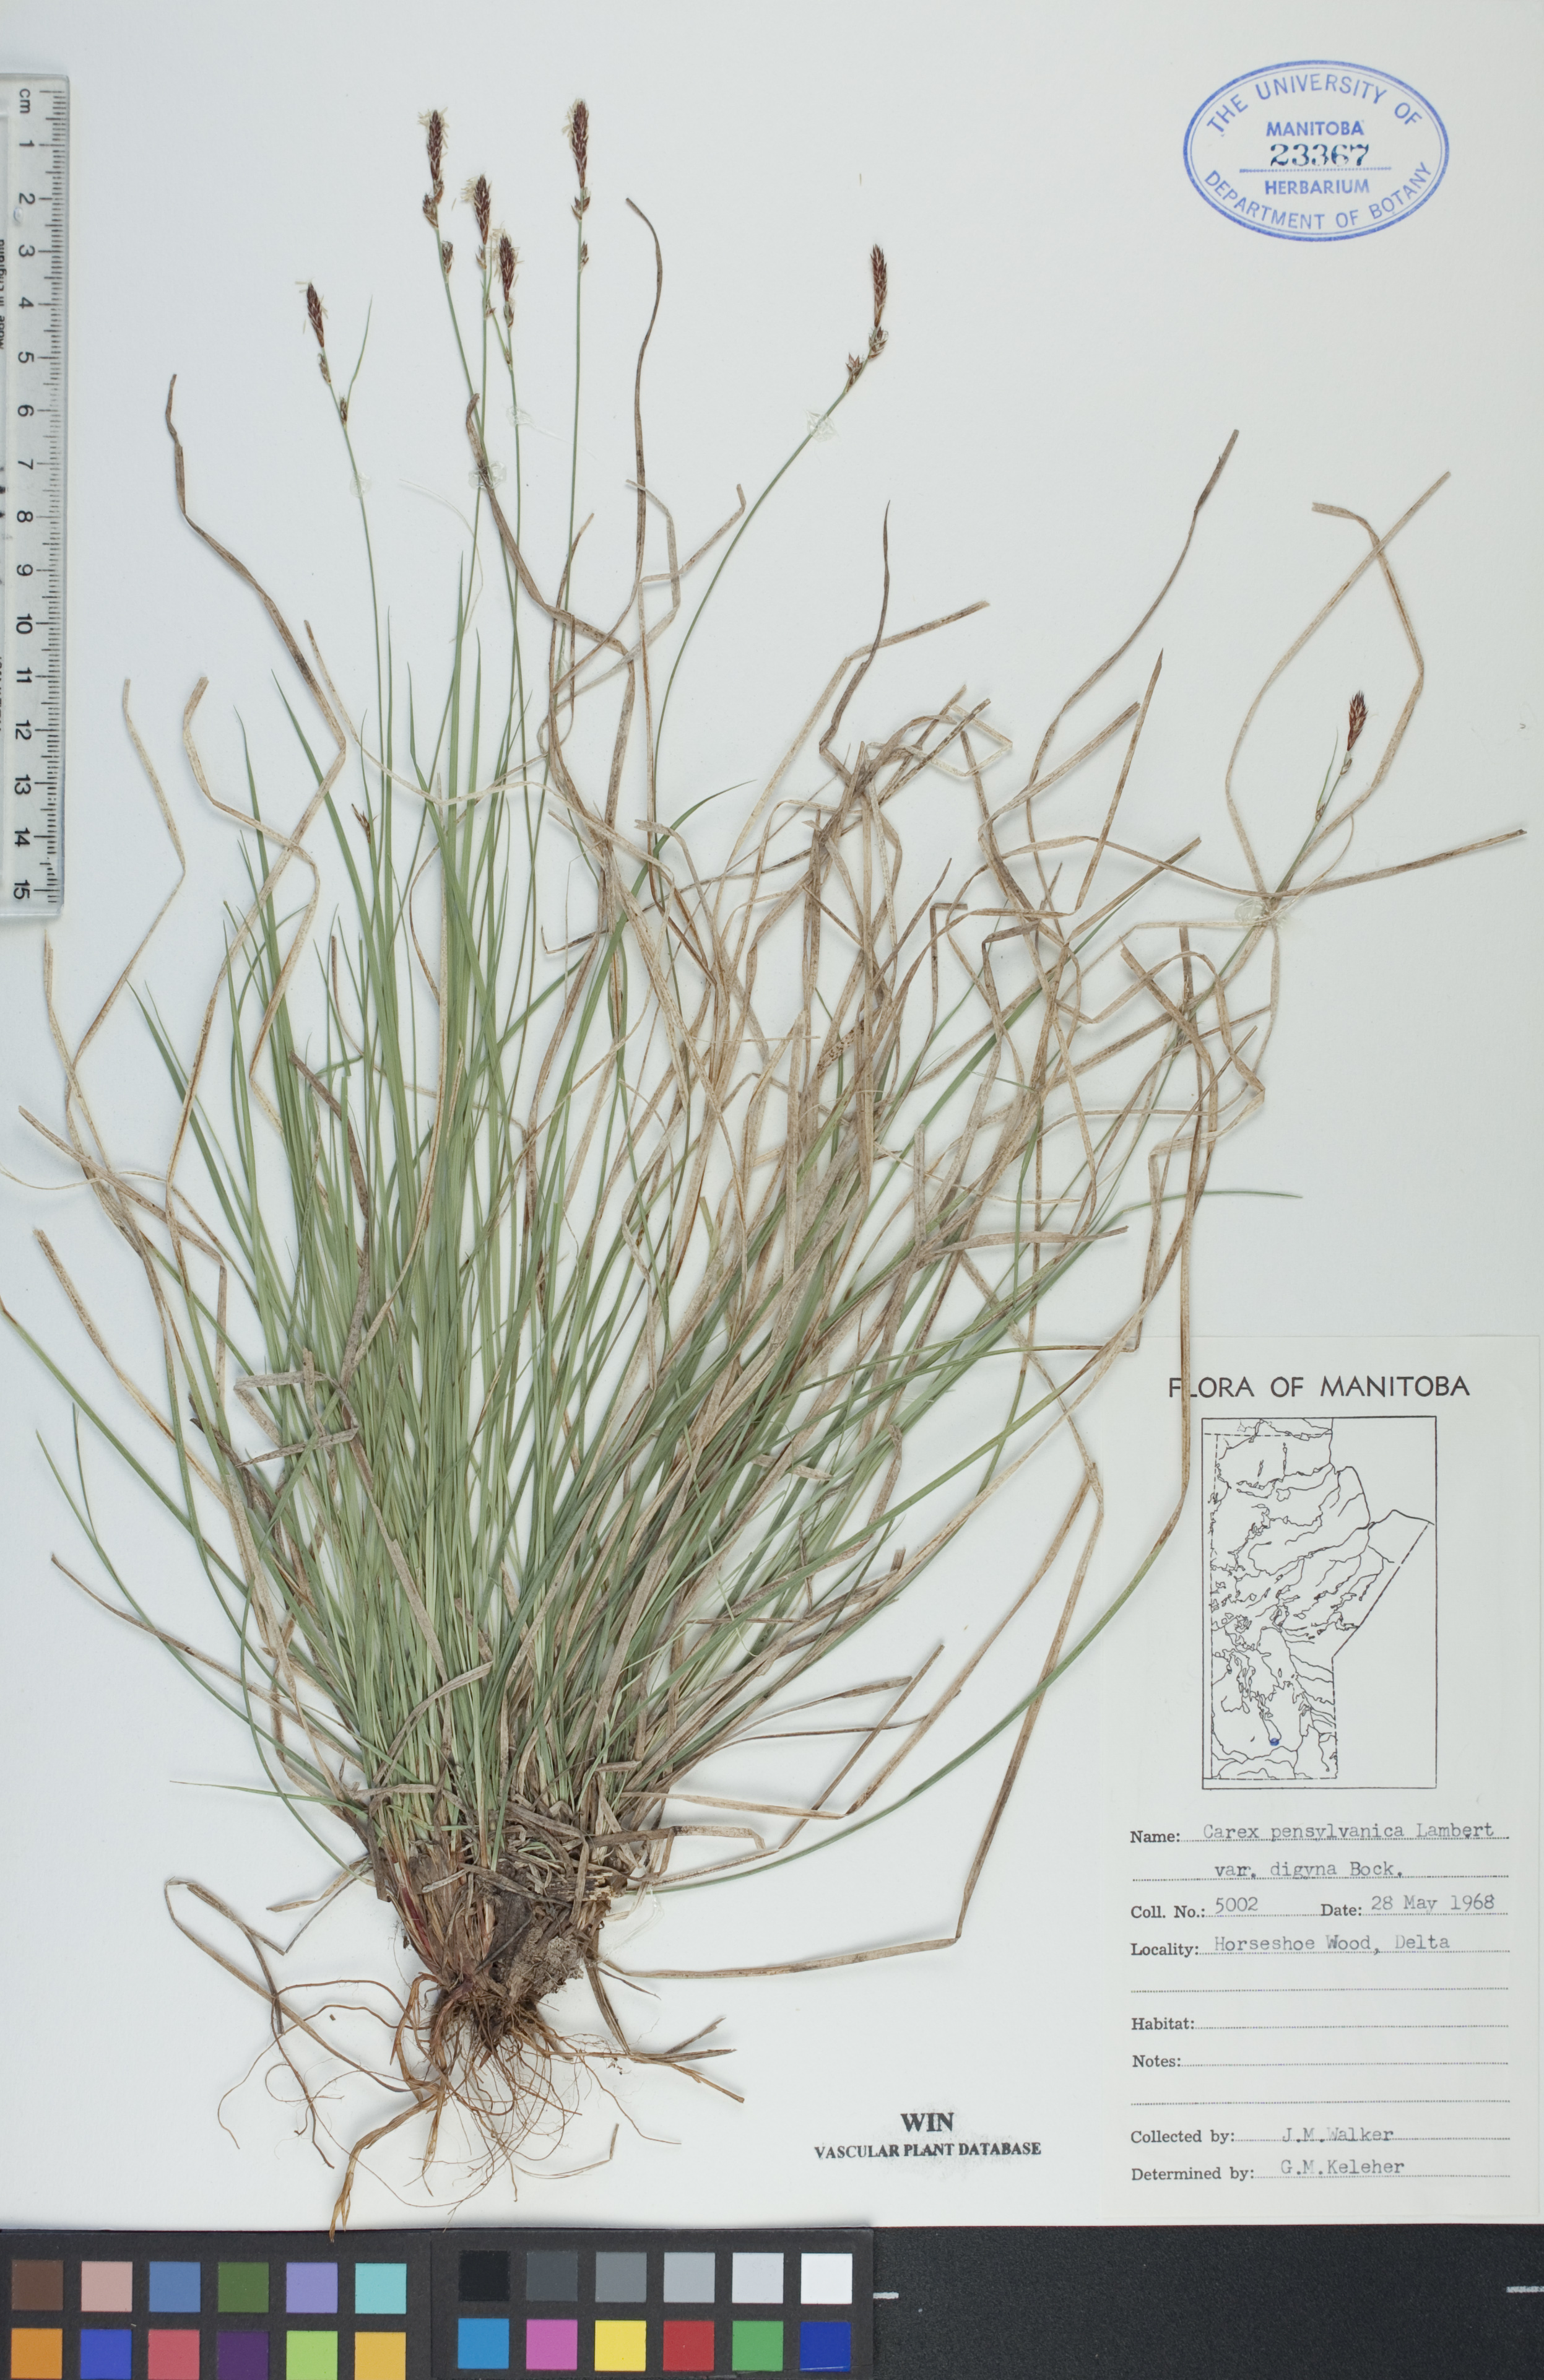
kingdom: Plantae
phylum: Tracheophyta
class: Liliopsida
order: Poales
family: Cyperaceae
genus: Carex
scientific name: Carex inops
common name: Long-stolon sedge
